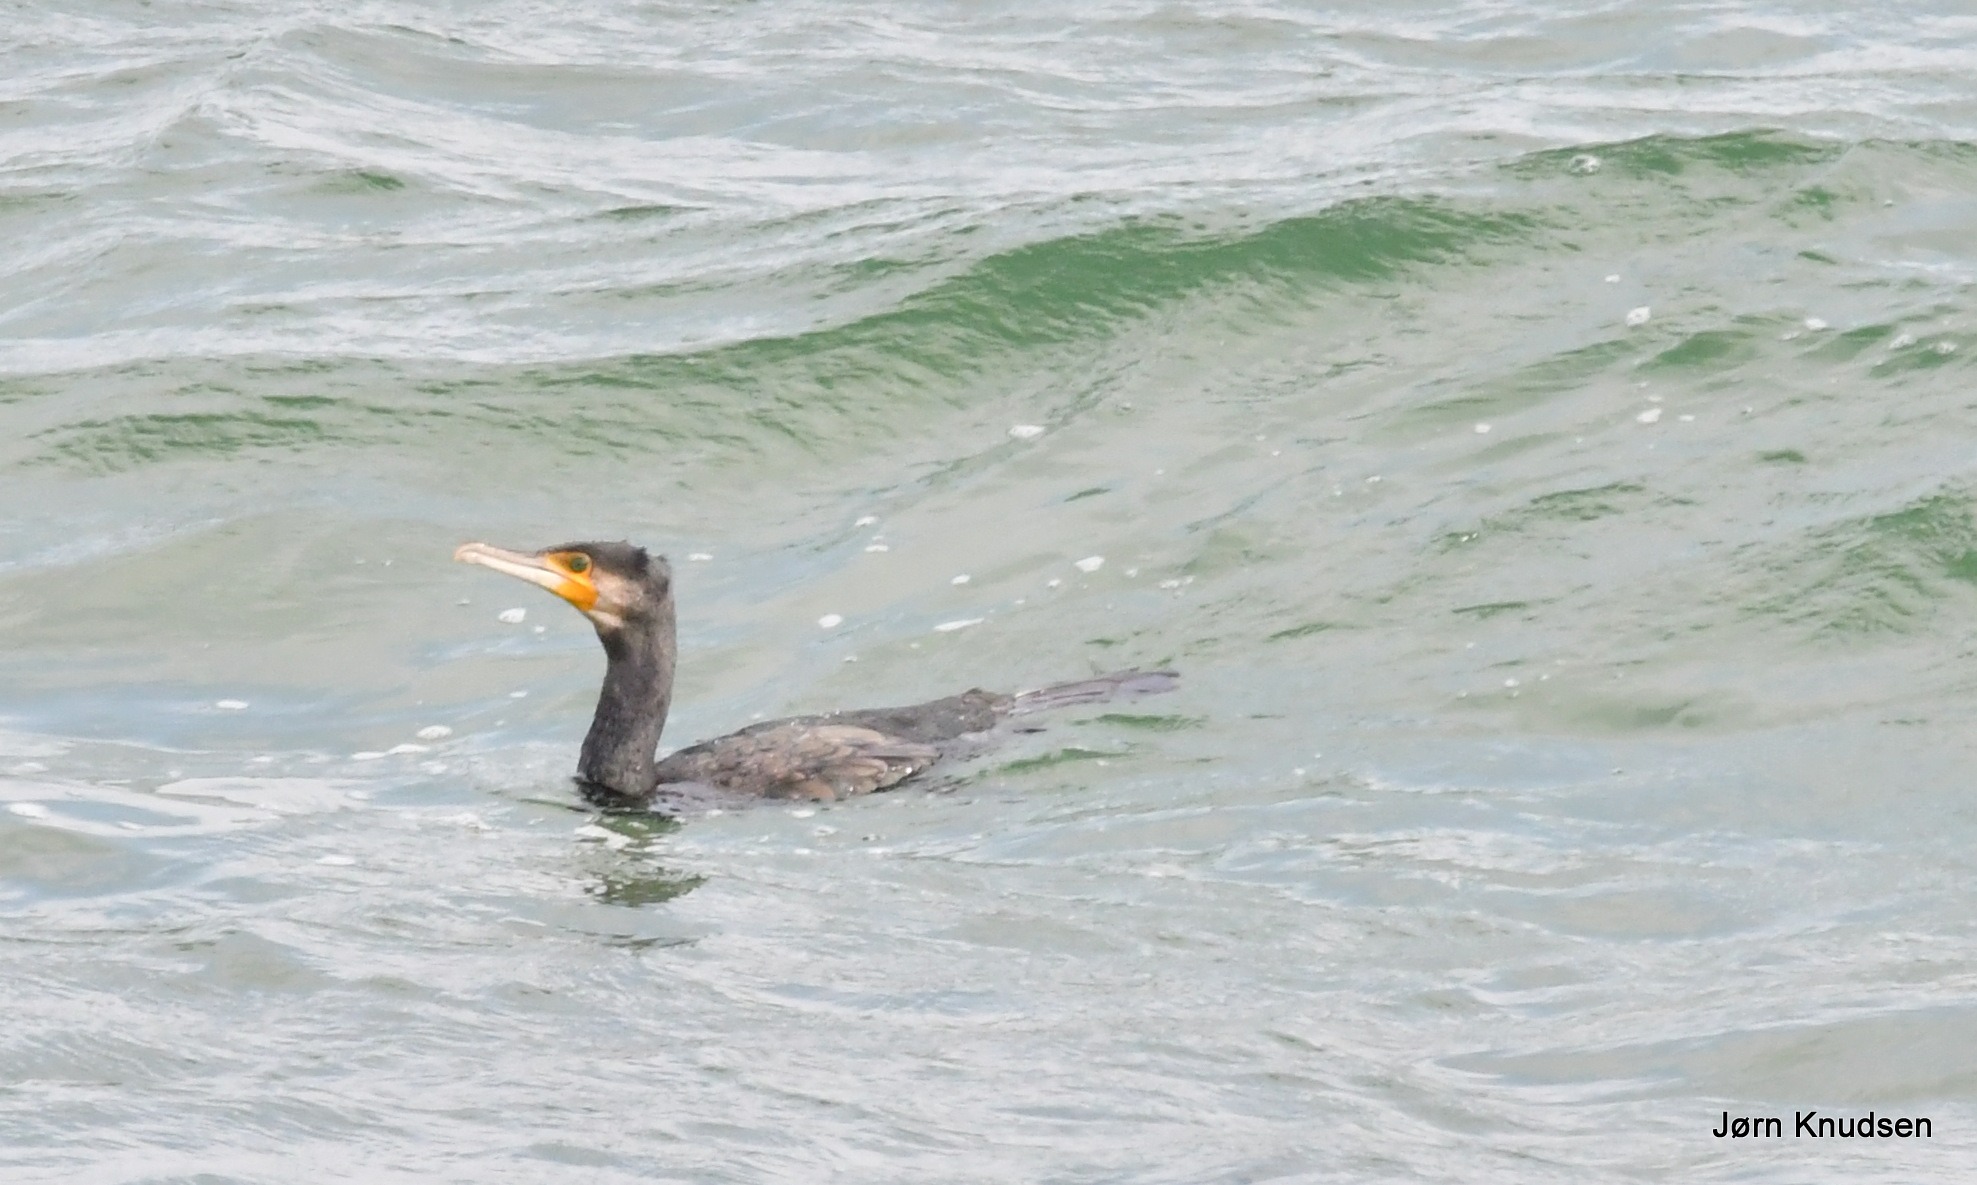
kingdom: Animalia
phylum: Chordata
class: Aves
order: Suliformes
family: Phalacrocoracidae
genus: Phalacrocorax
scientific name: Phalacrocorax carbo
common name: Skarv
